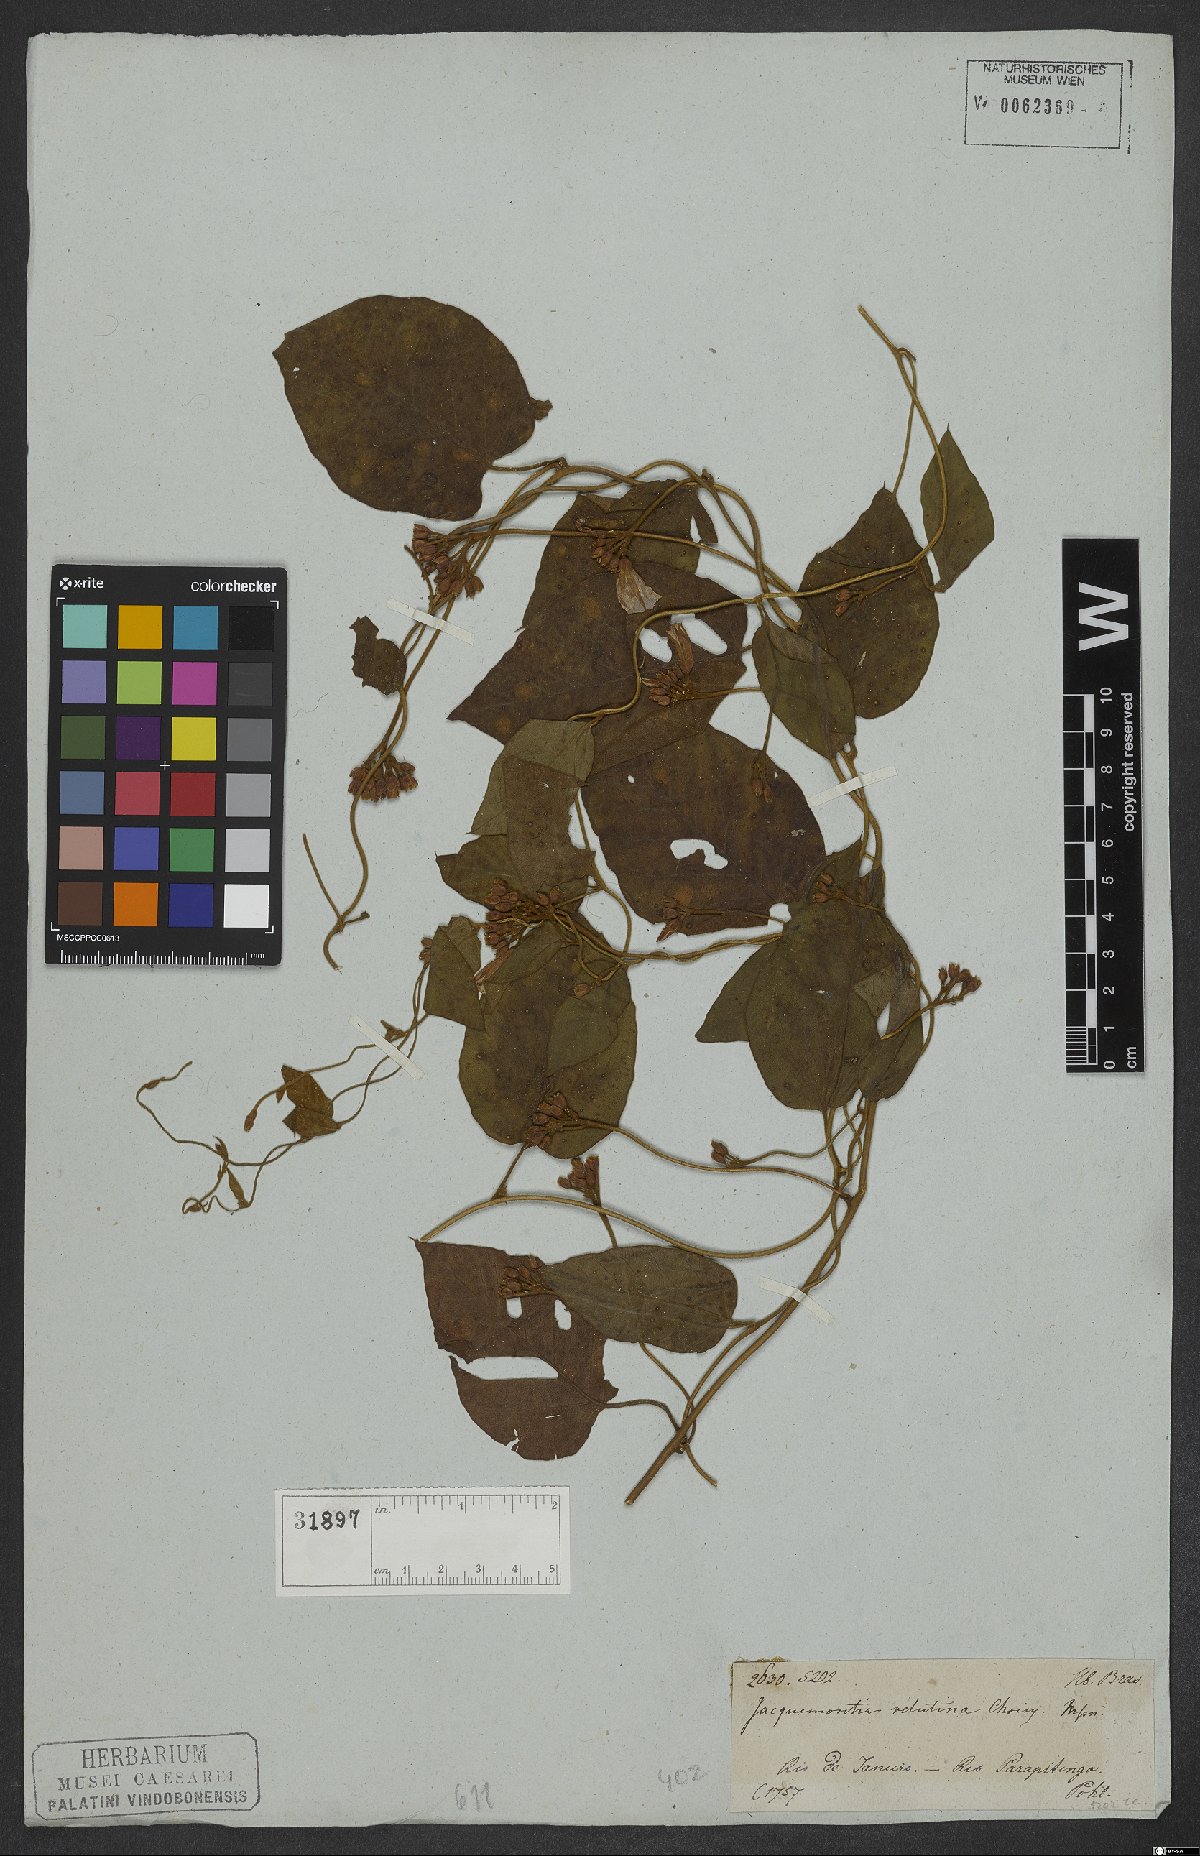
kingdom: Plantae
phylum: Tracheophyta
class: Magnoliopsida
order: Solanales
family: Convolvulaceae
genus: Jacquemontia
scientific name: Jacquemontia velutina
